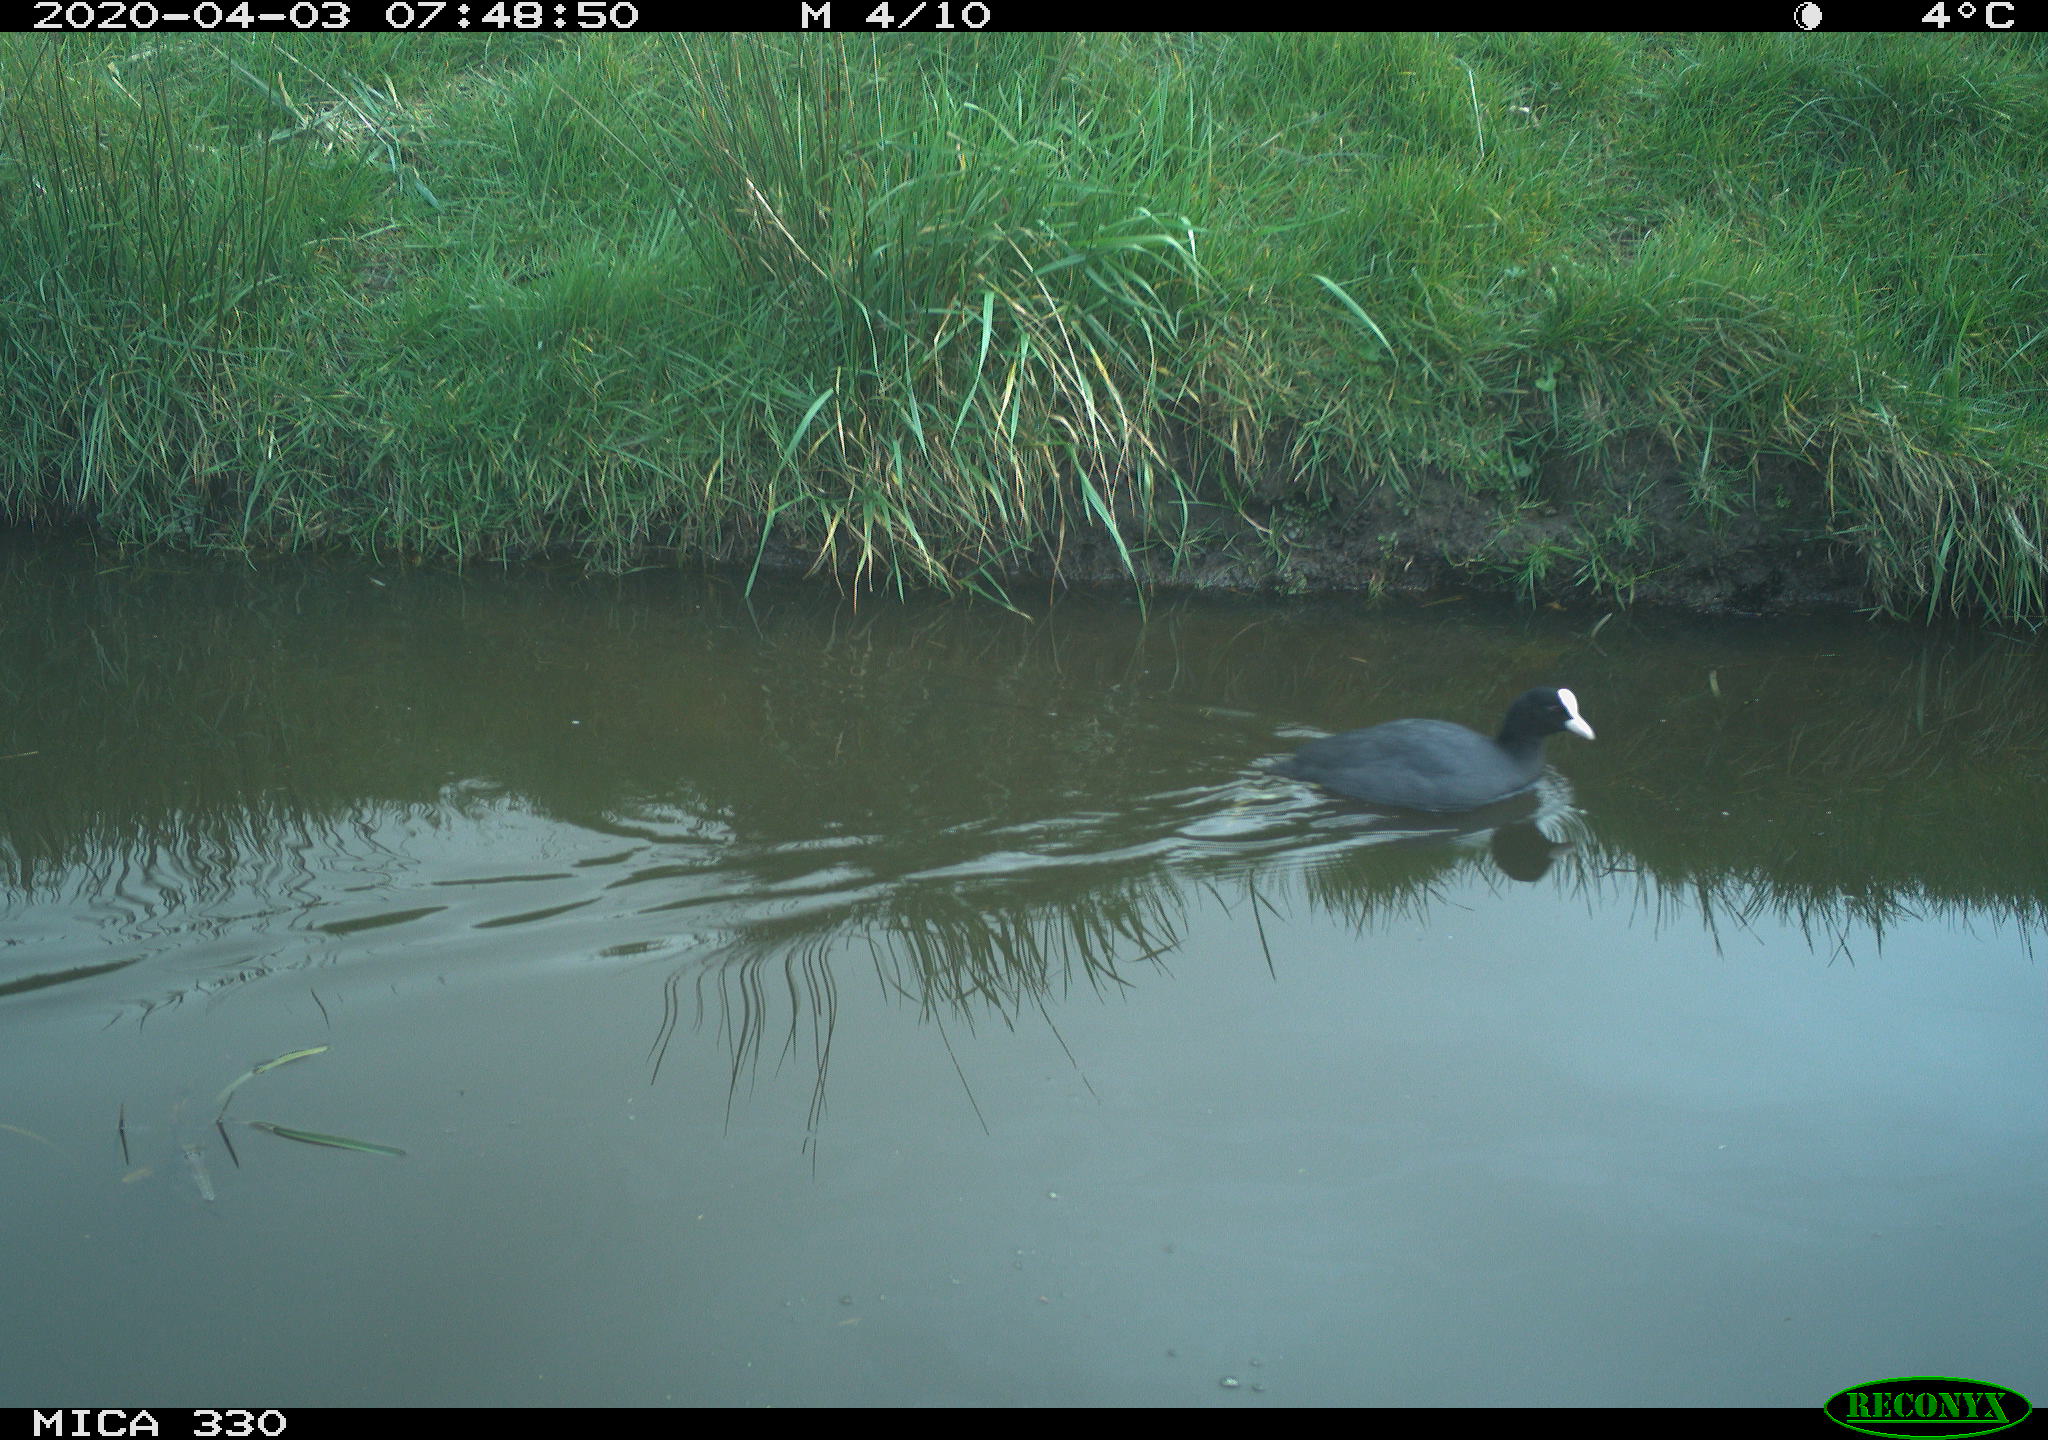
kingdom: Animalia
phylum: Chordata
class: Aves
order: Gruiformes
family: Rallidae
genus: Fulica
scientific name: Fulica atra
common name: Eurasian coot
